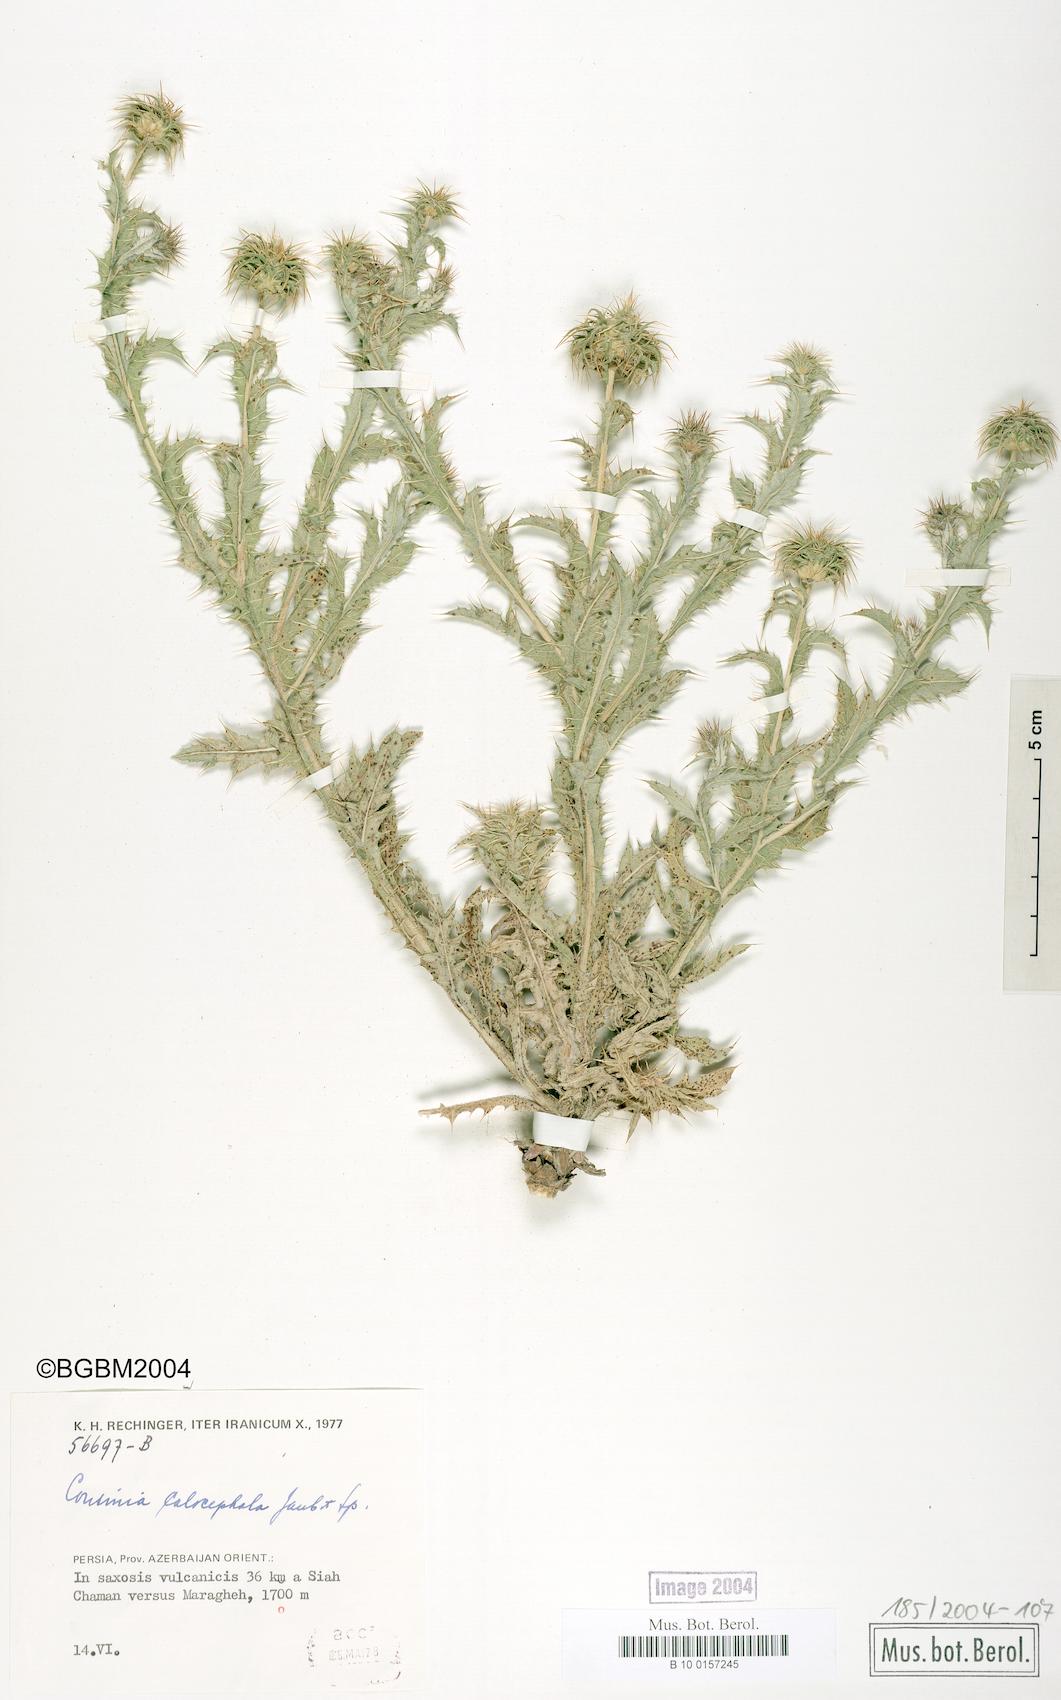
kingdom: Plantae
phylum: Tracheophyta
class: Magnoliopsida
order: Asterales
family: Asteraceae
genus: Cousinia
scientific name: Cousinia calocephala
